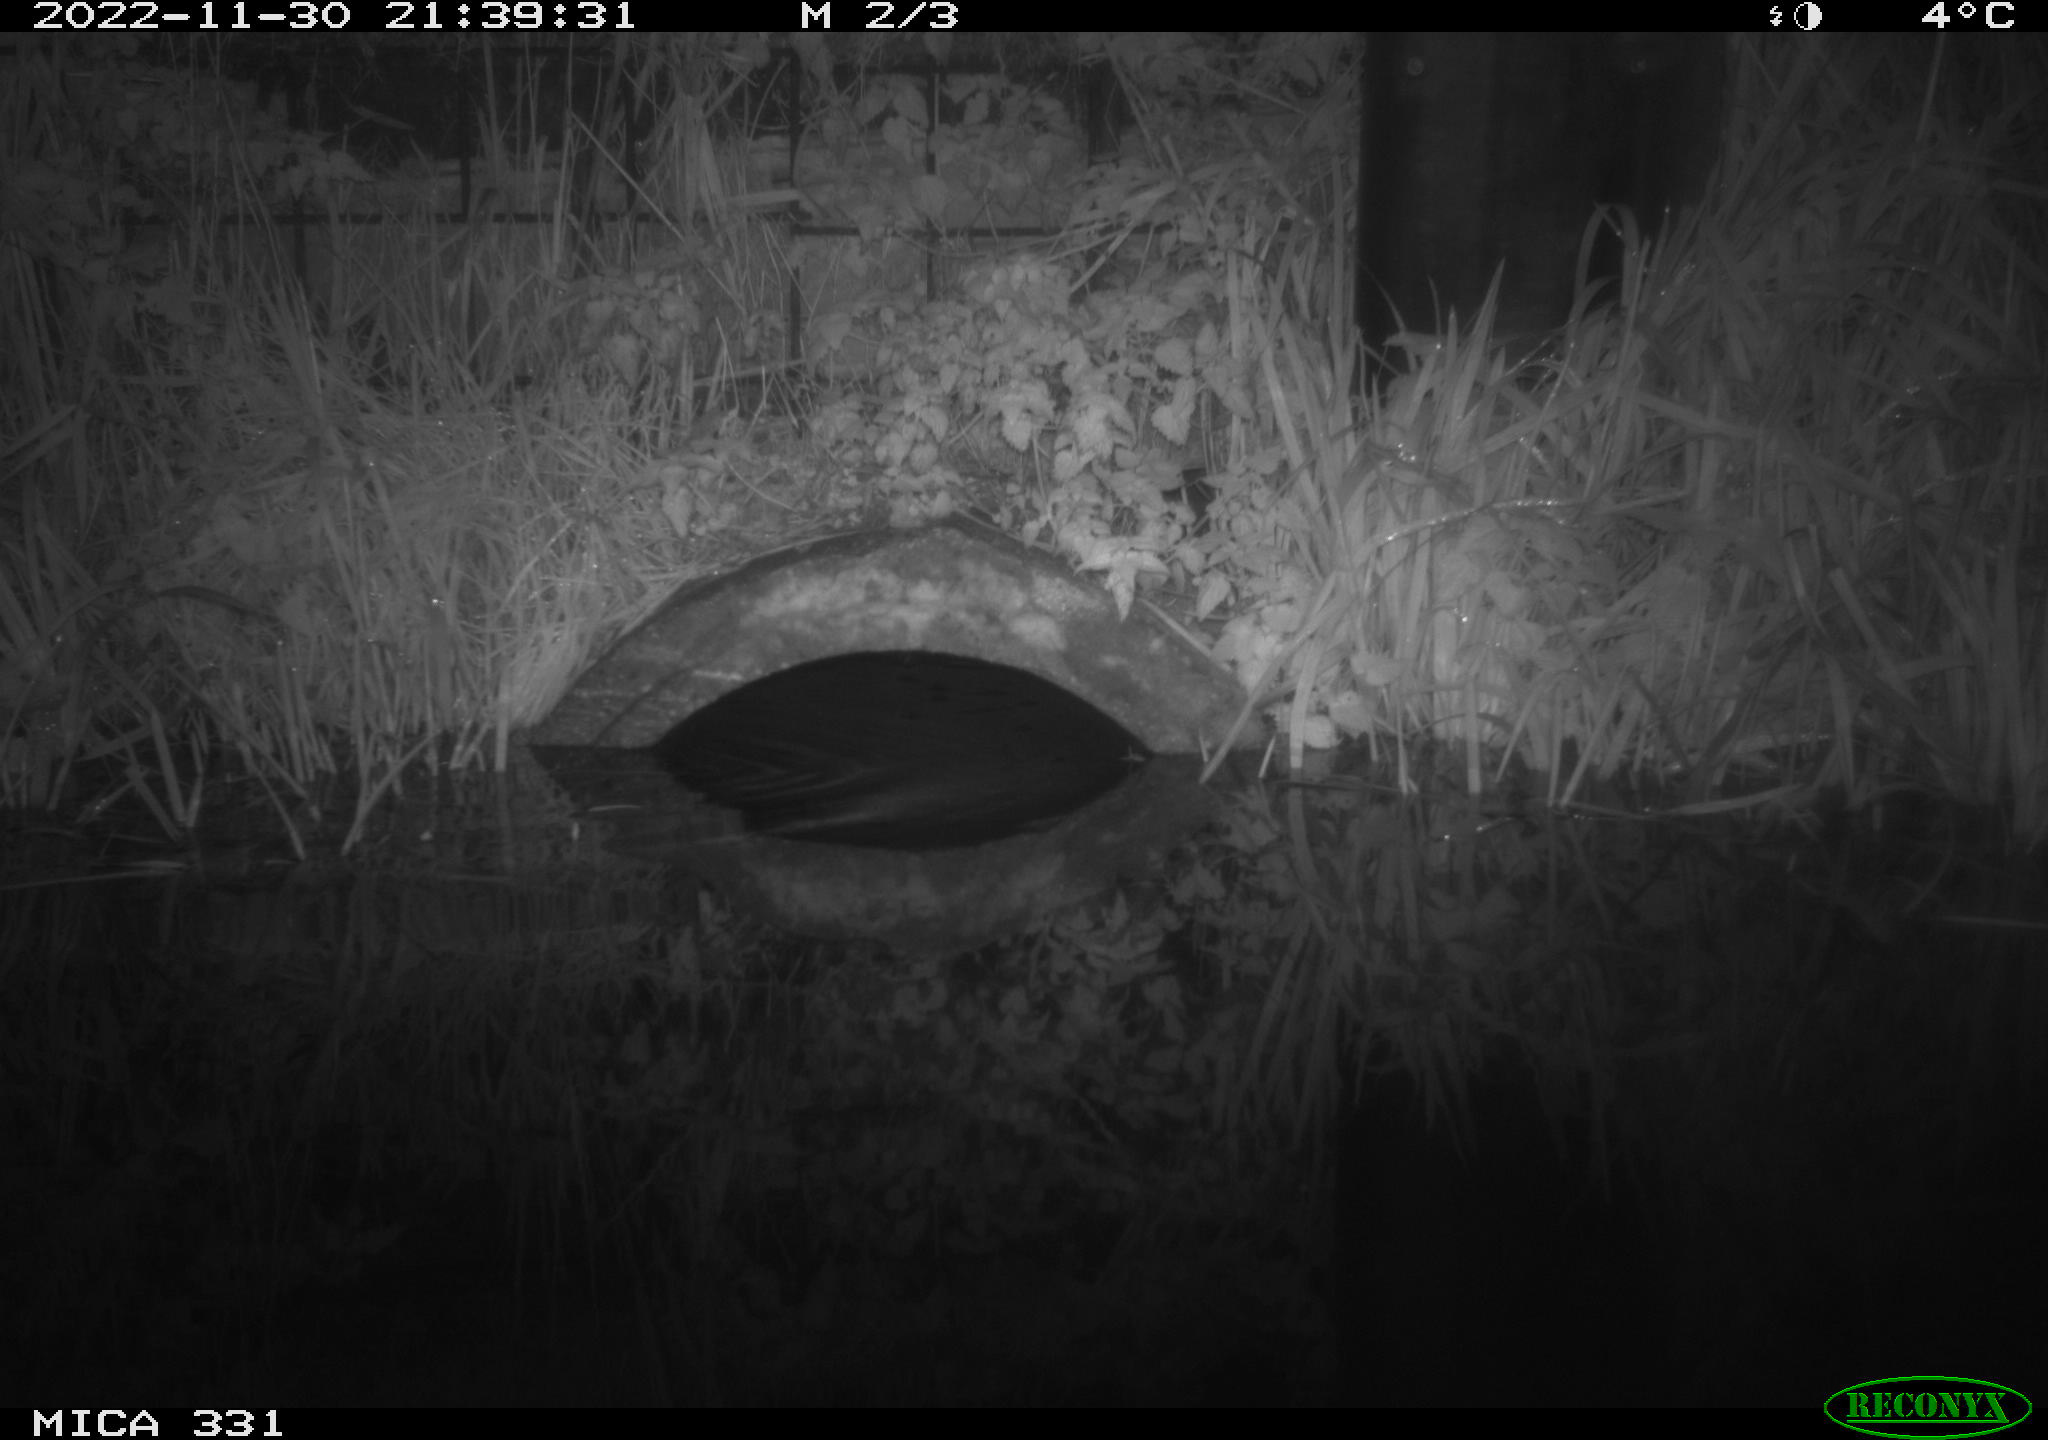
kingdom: Animalia
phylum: Chordata
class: Mammalia
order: Rodentia
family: Muridae
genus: Rattus
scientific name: Rattus norvegicus
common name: Brown rat
